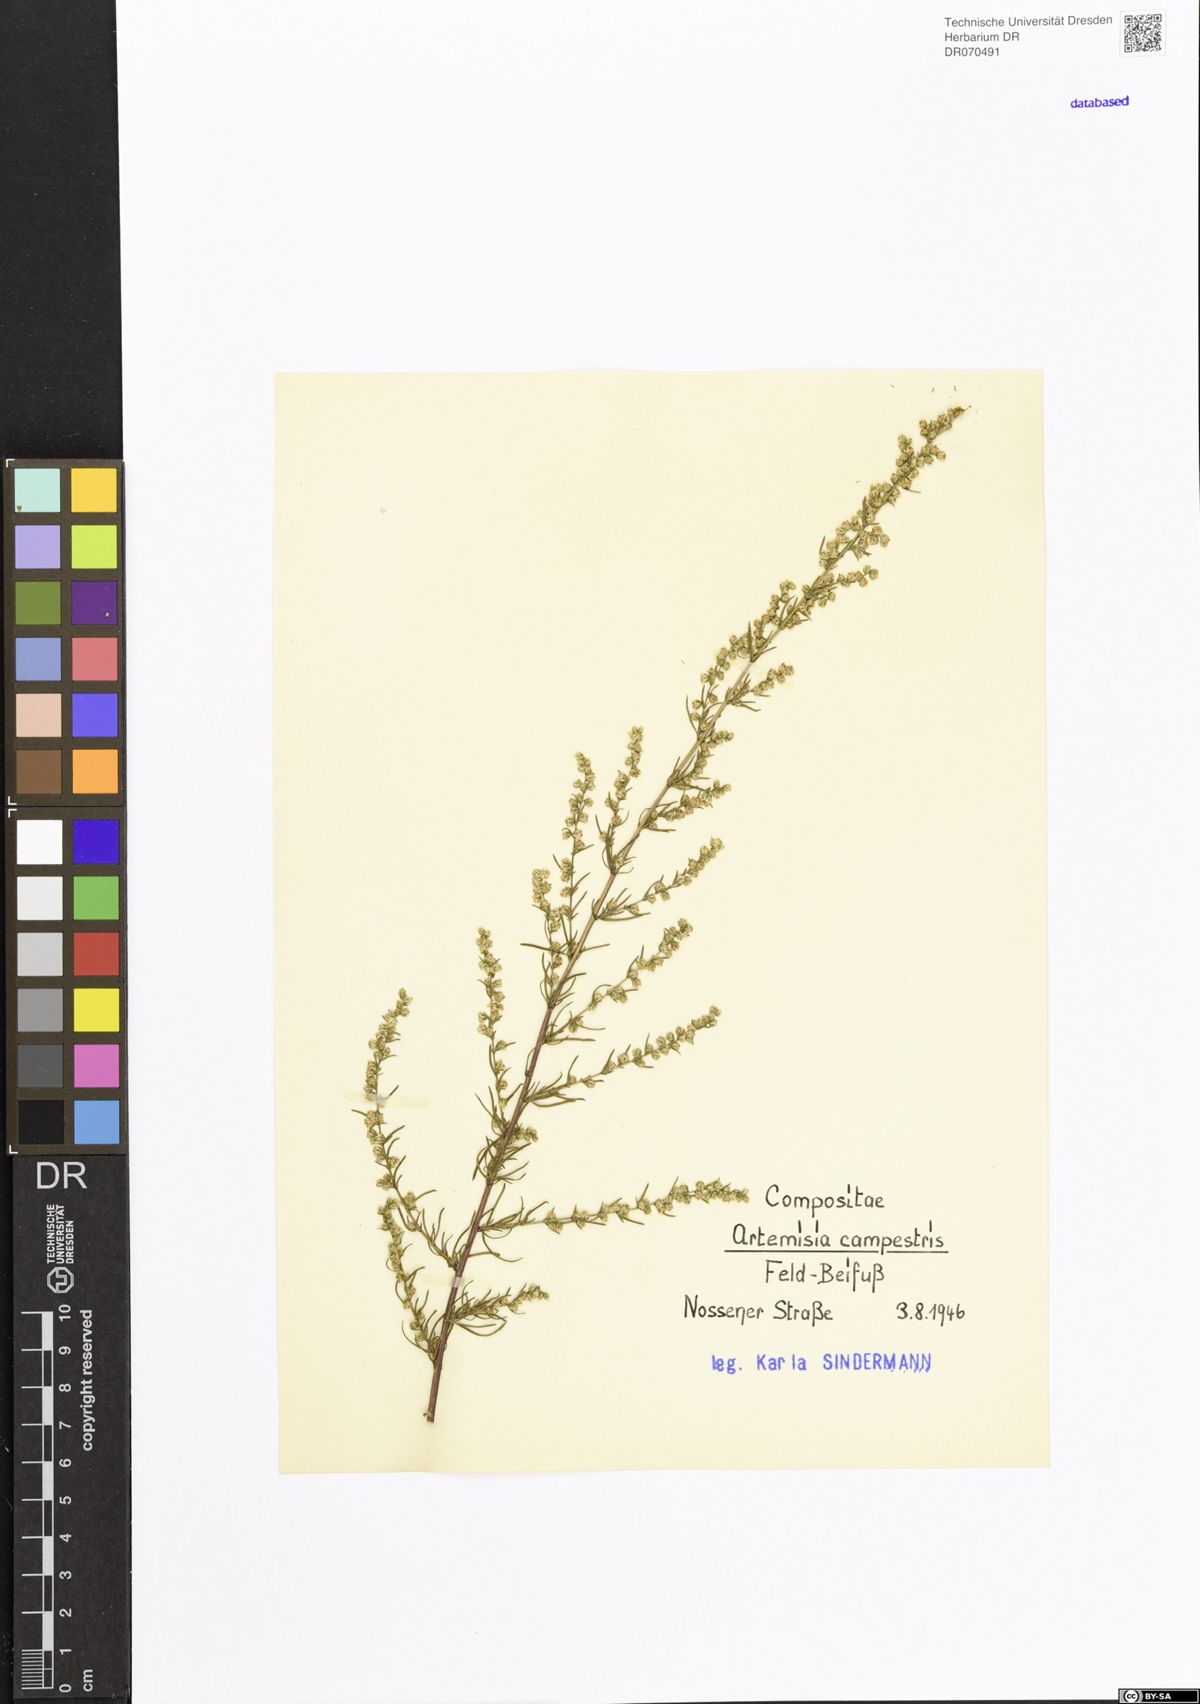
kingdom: Plantae
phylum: Tracheophyta
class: Magnoliopsida
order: Asterales
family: Asteraceae
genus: Artemisia
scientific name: Artemisia campestris
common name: Field wormwood
